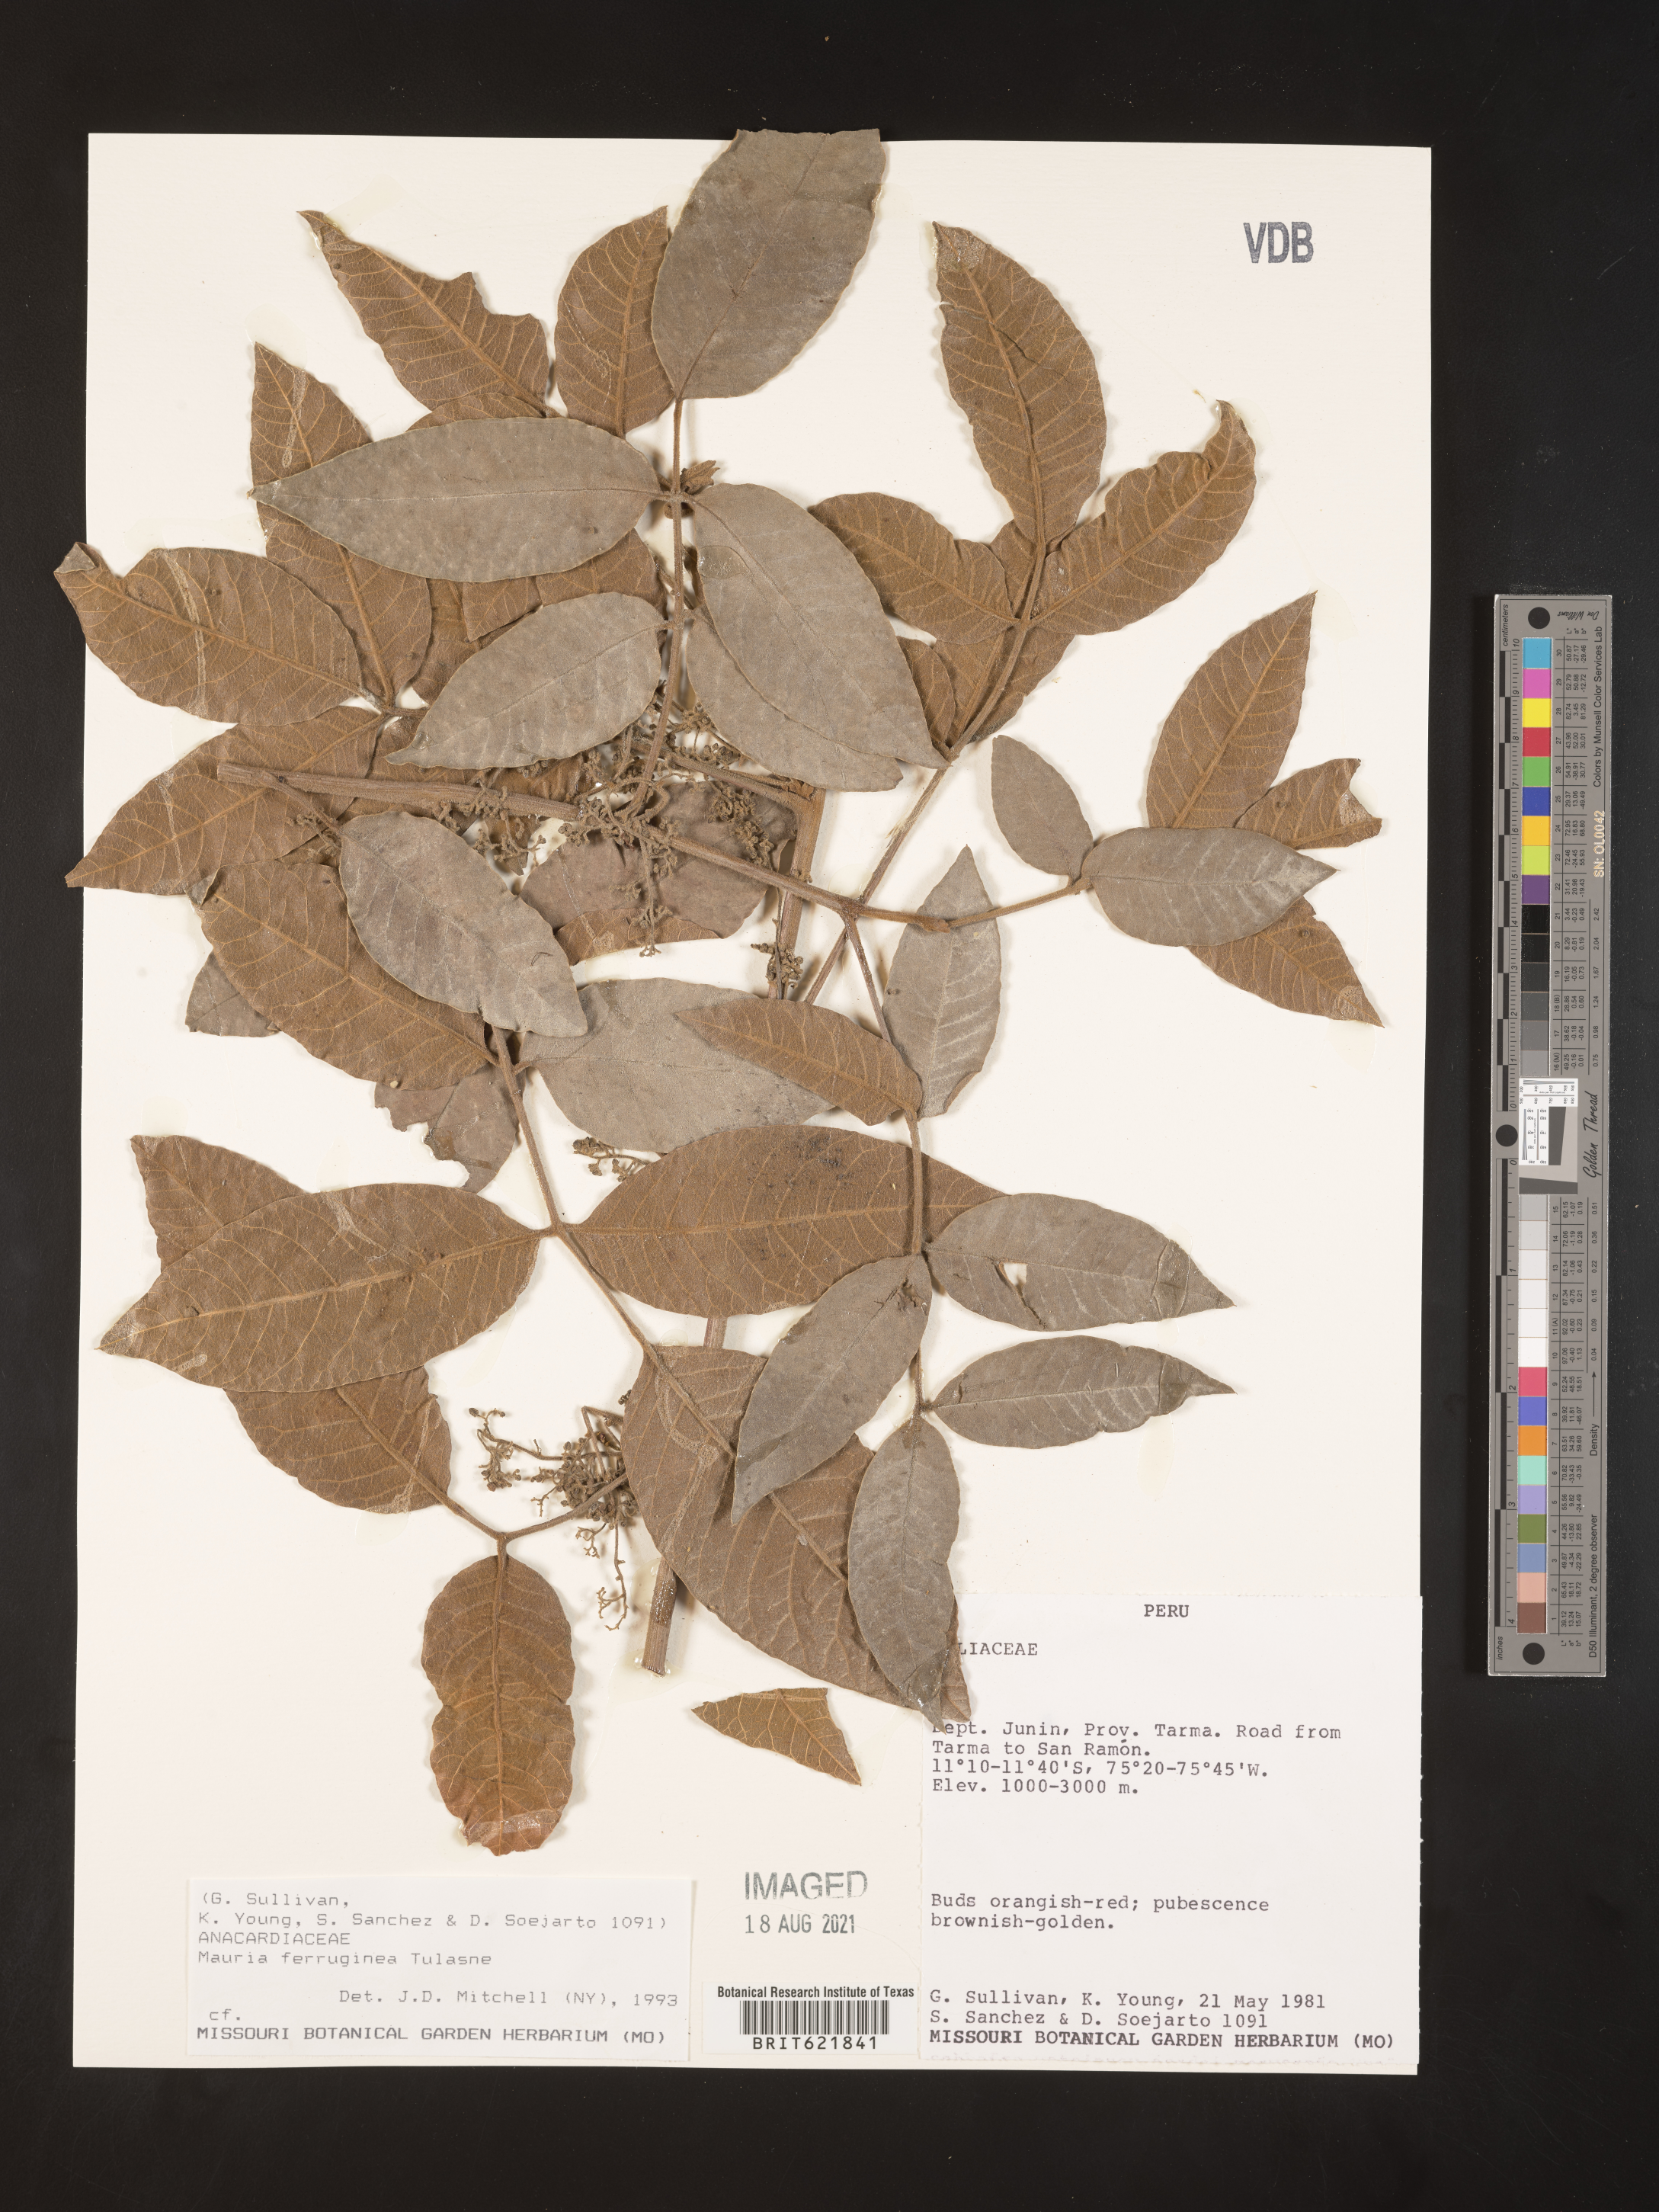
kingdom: Plantae
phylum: Tracheophyta
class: Magnoliopsida
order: Sapindales
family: Anacardiaceae
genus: Mauria
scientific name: Mauria ferruginea
